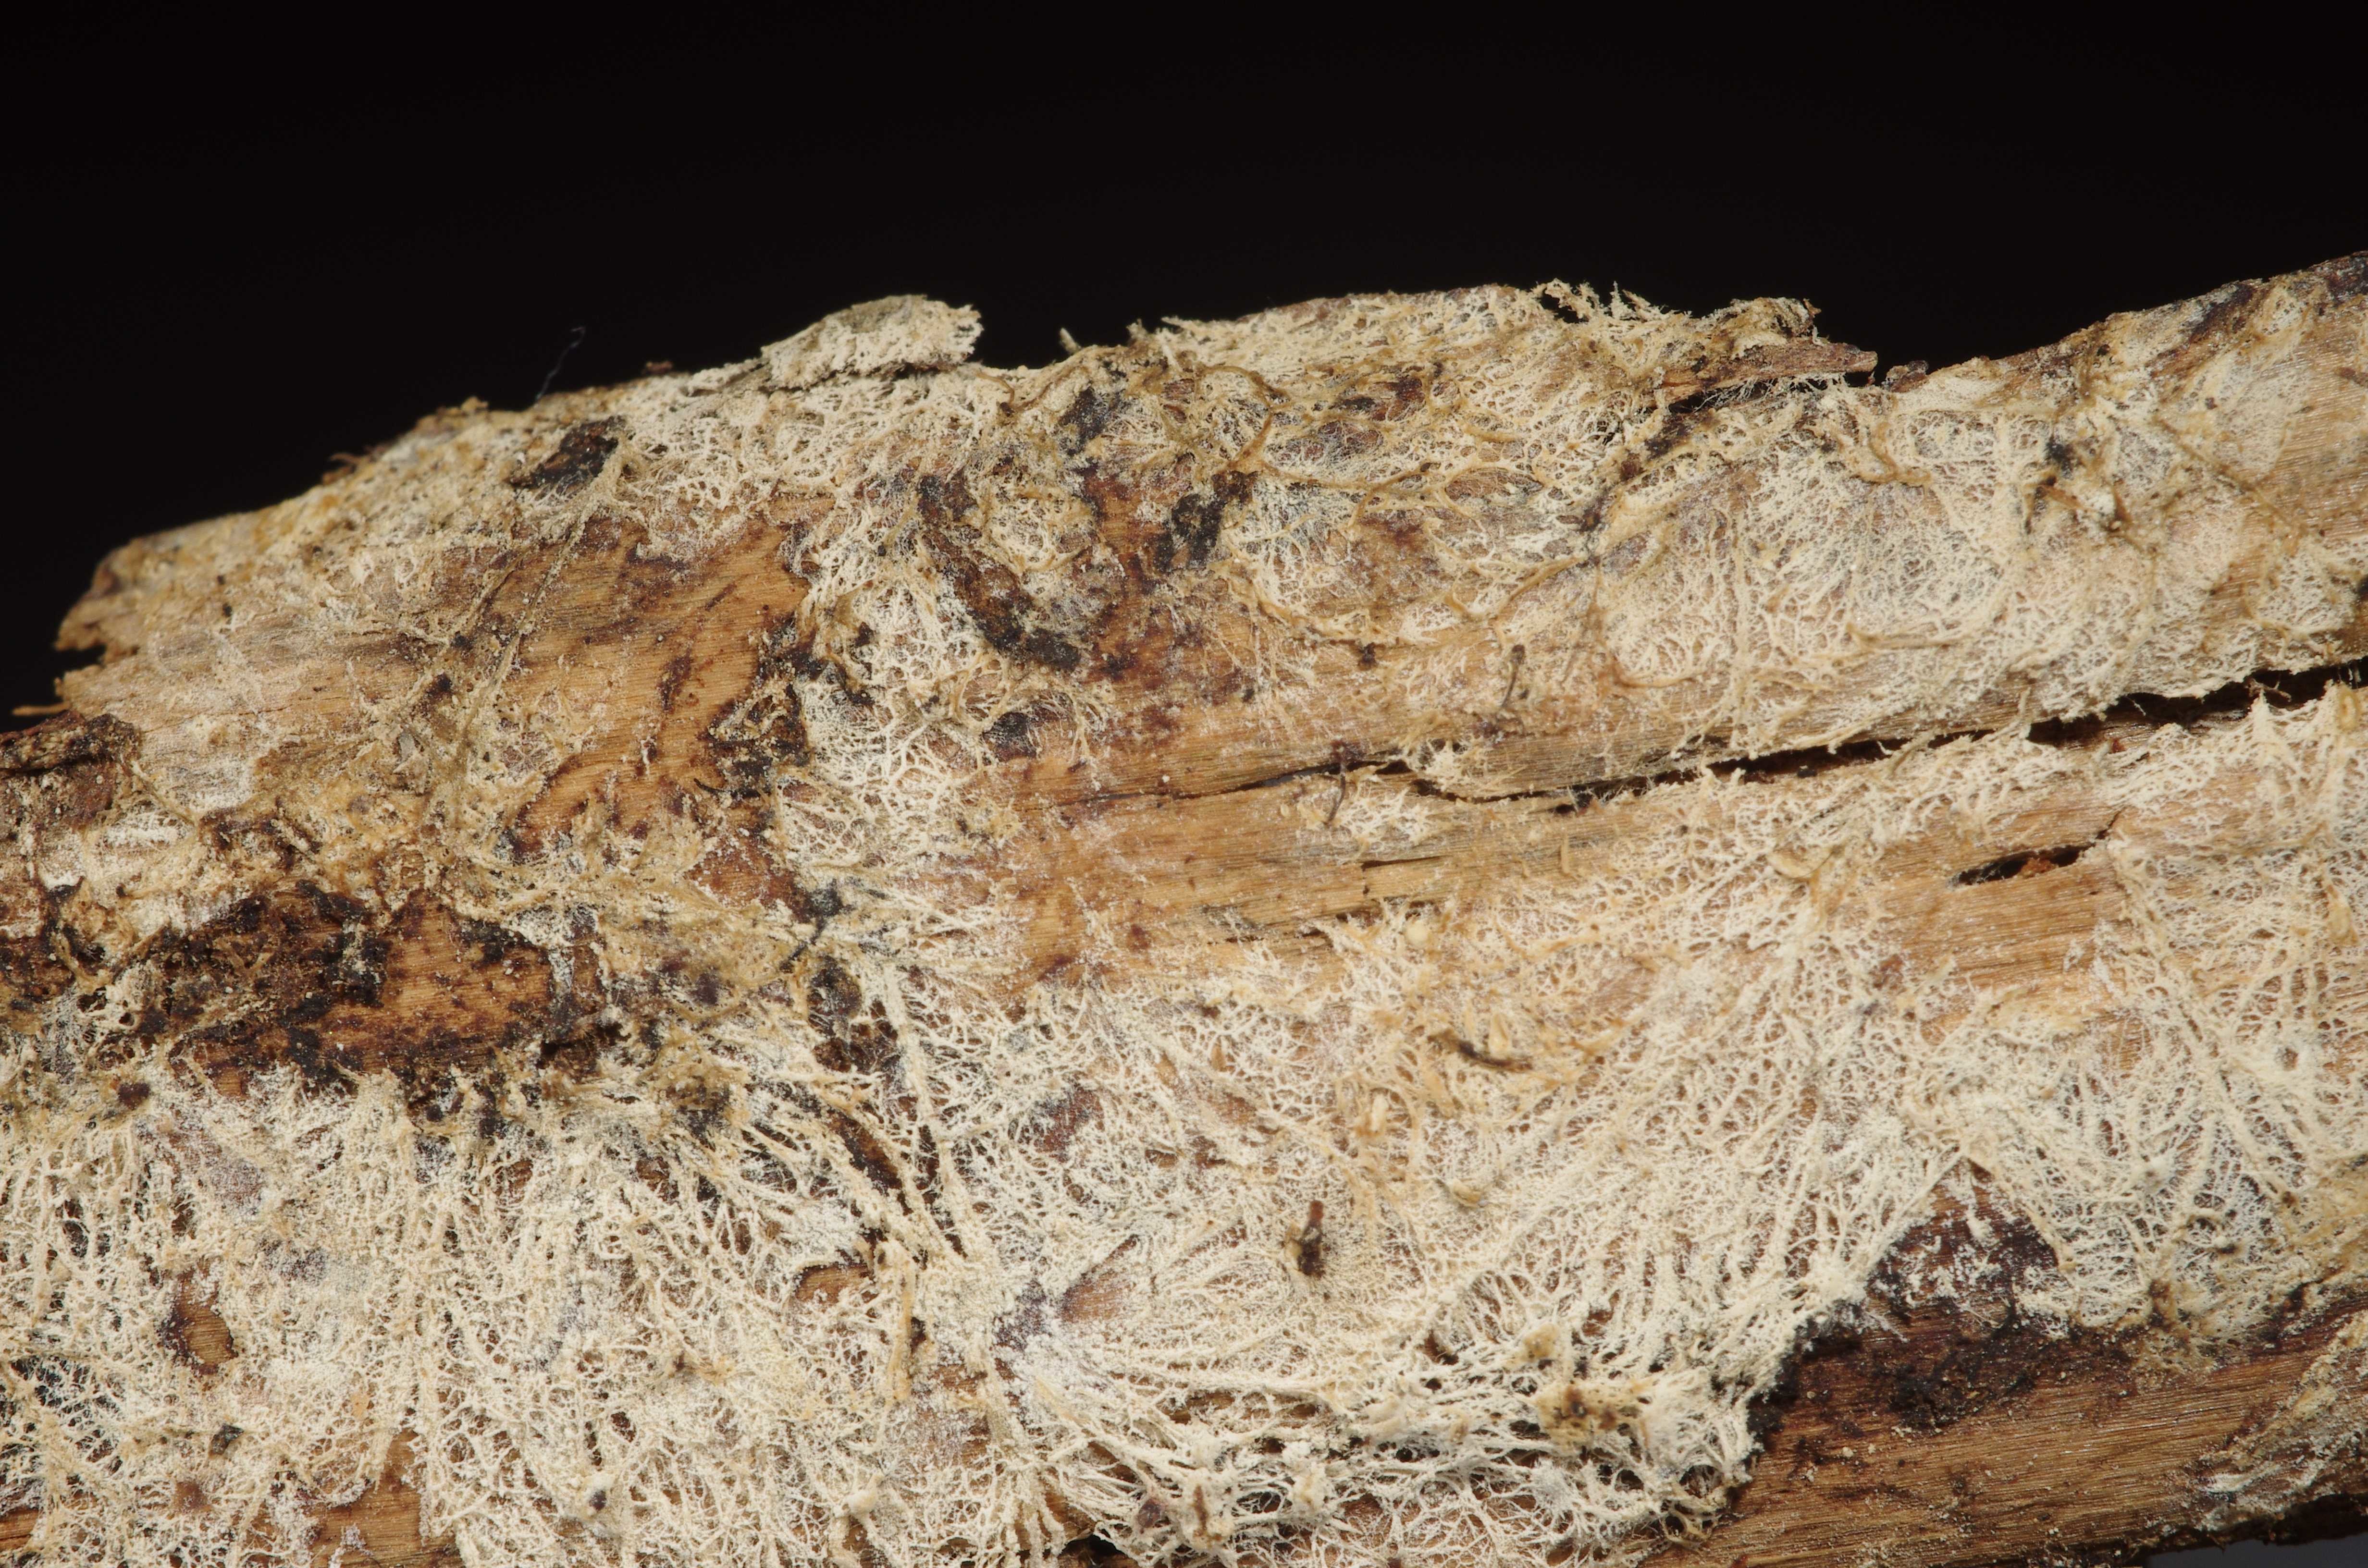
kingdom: Fungi
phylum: Basidiomycota
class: Agaricomycetes
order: Russulales
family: Xenasmataceae
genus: Xenasmatella
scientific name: Xenasmatella christiansenii
